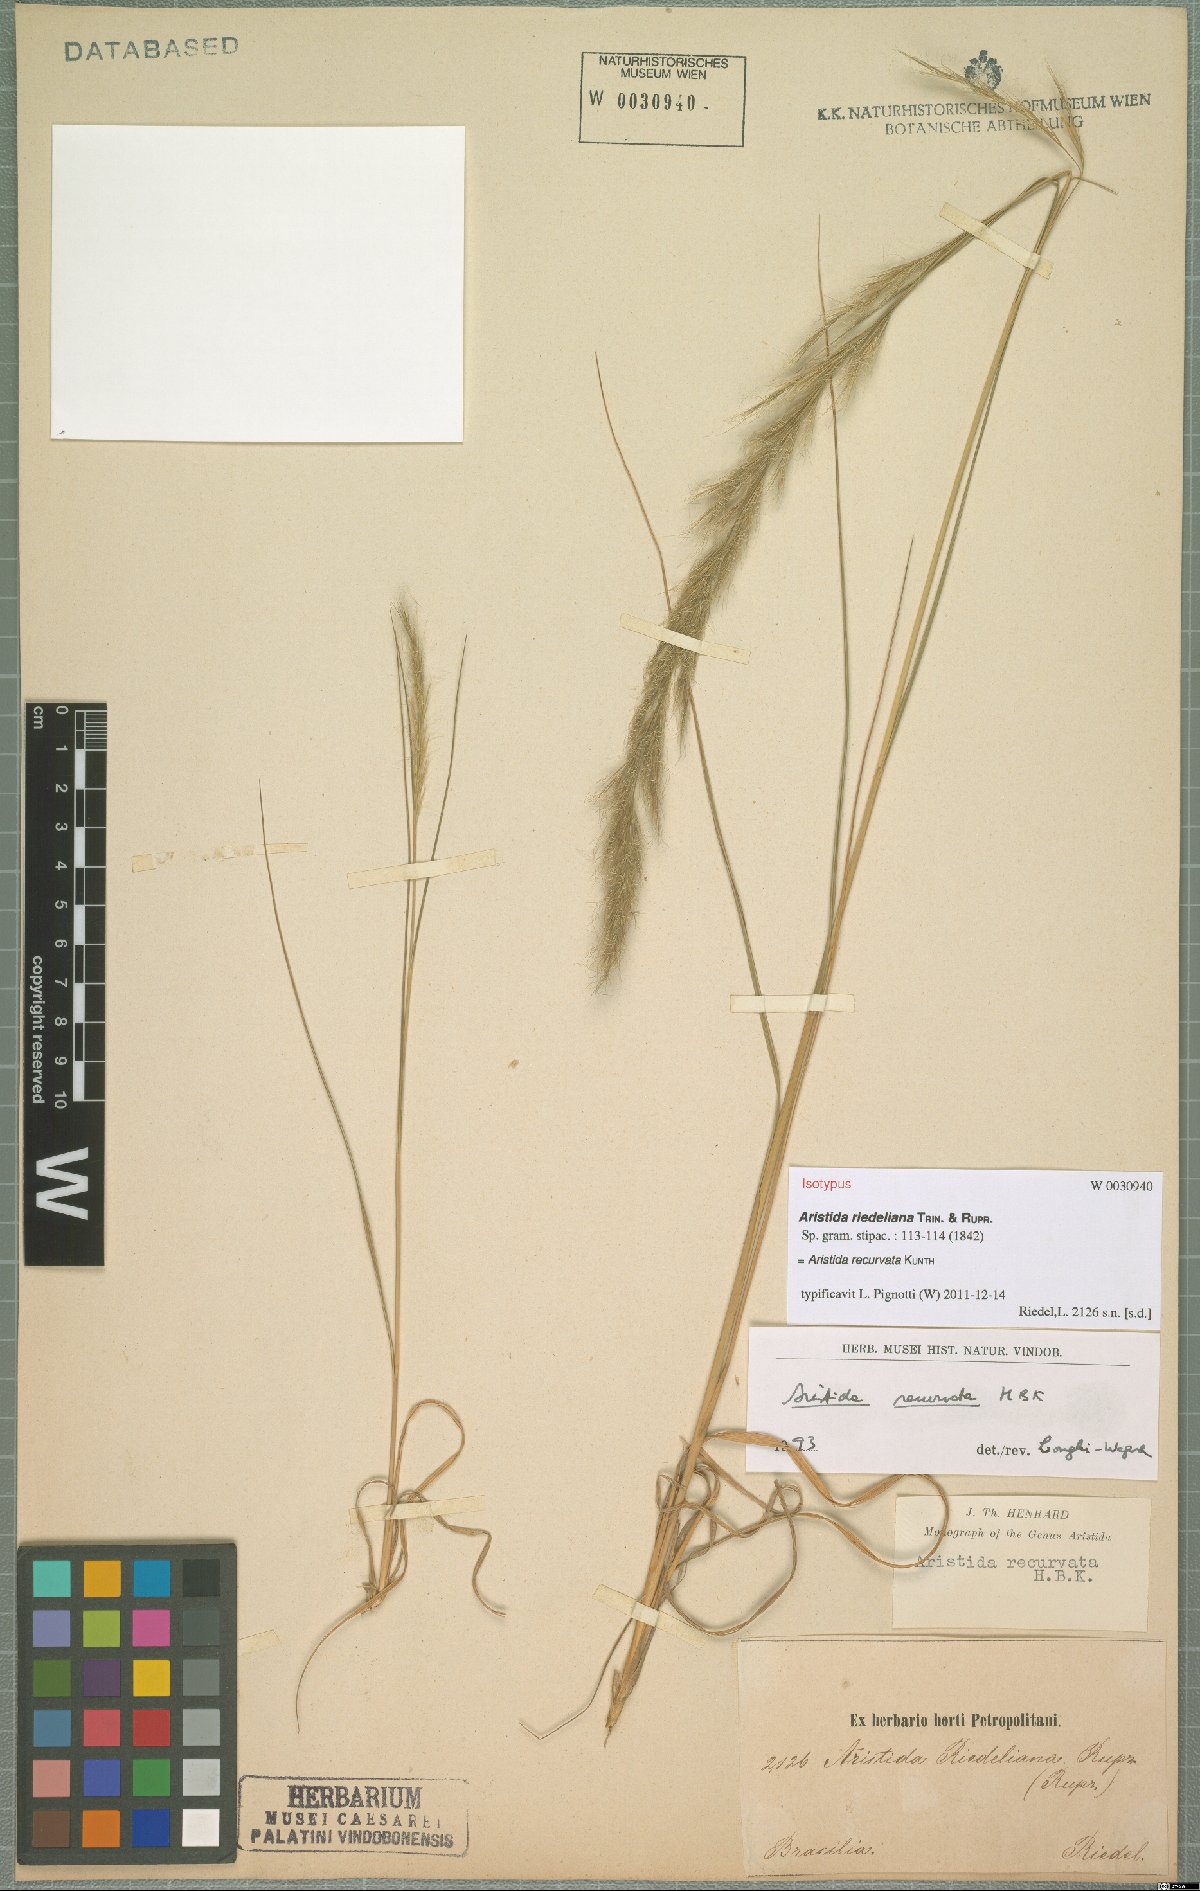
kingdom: Plantae
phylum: Tracheophyta
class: Liliopsida
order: Poales
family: Poaceae
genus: Aristida
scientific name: Aristida recurvata
